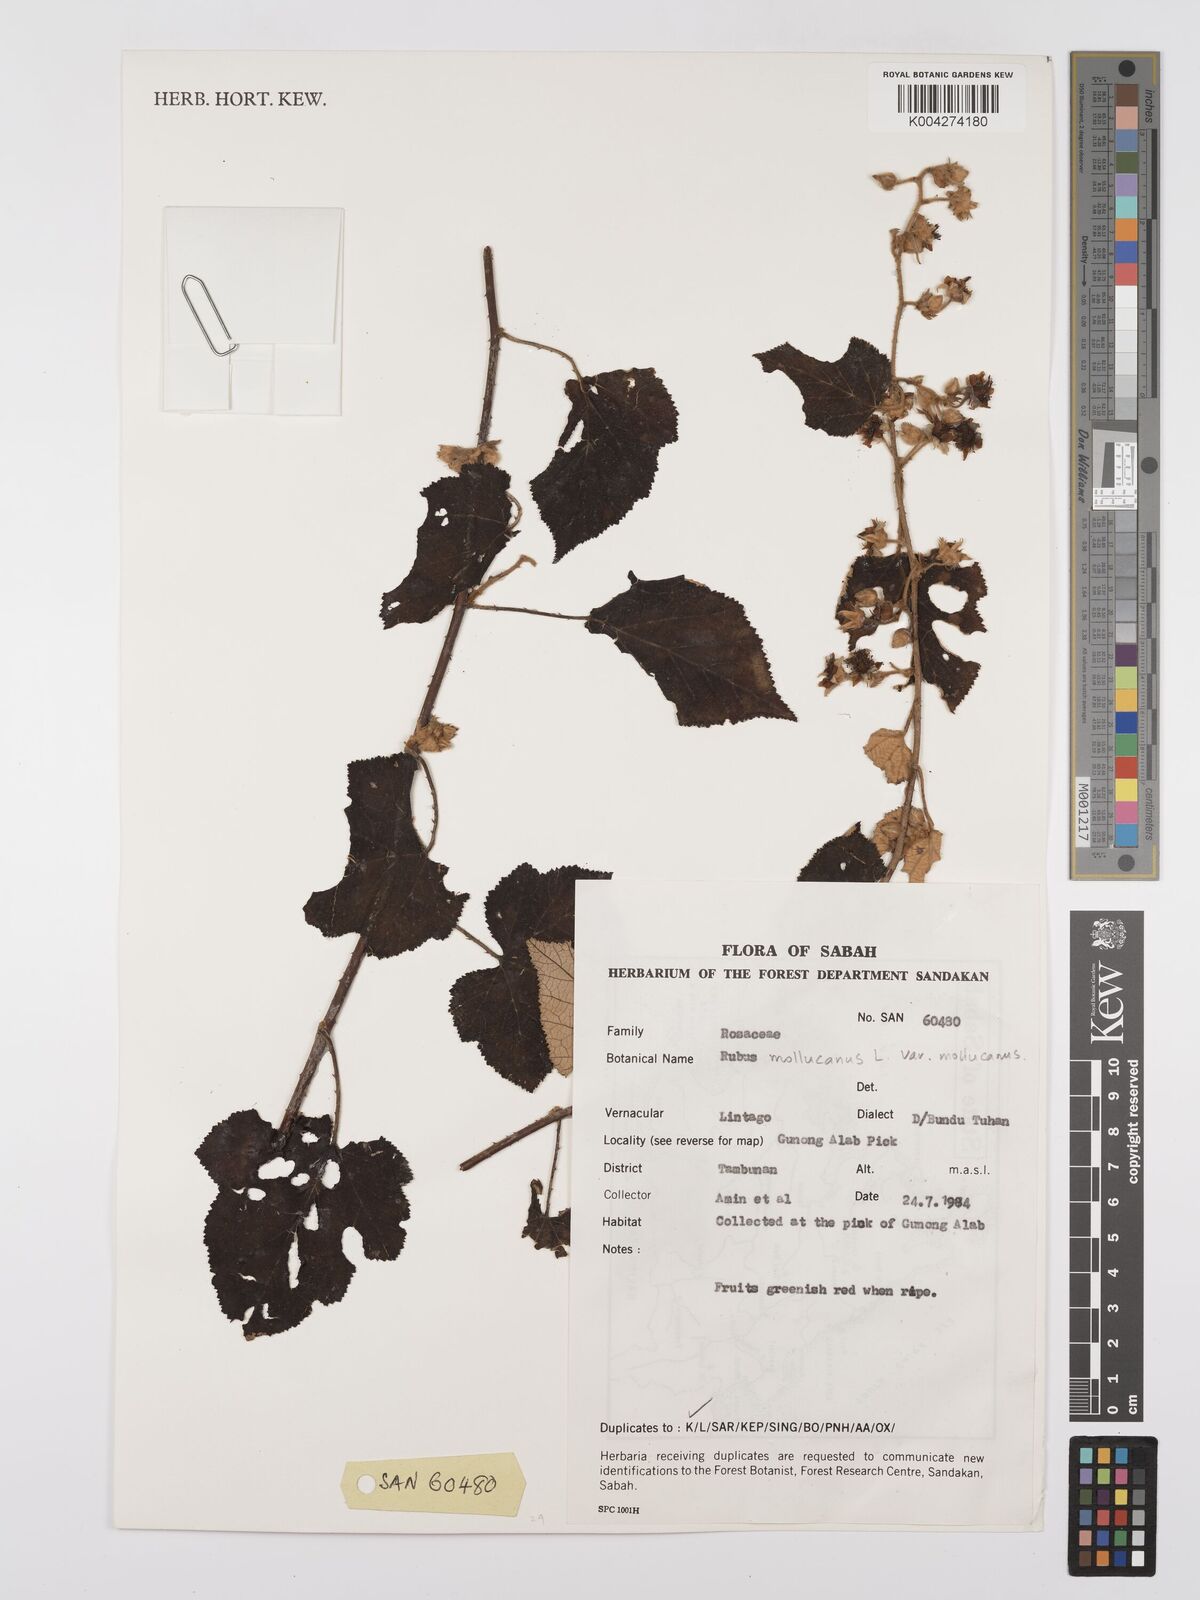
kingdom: Plantae
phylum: Tracheophyta
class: Magnoliopsida
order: Rosales
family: Rosaceae
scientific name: Rosaceae
